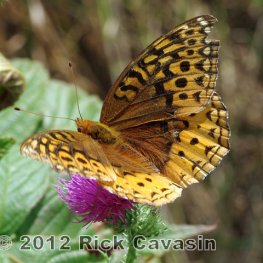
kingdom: Animalia
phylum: Arthropoda
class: Insecta
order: Lepidoptera
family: Nymphalidae
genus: Speyeria
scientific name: Speyeria cybele
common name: Great Spangled Fritillary
